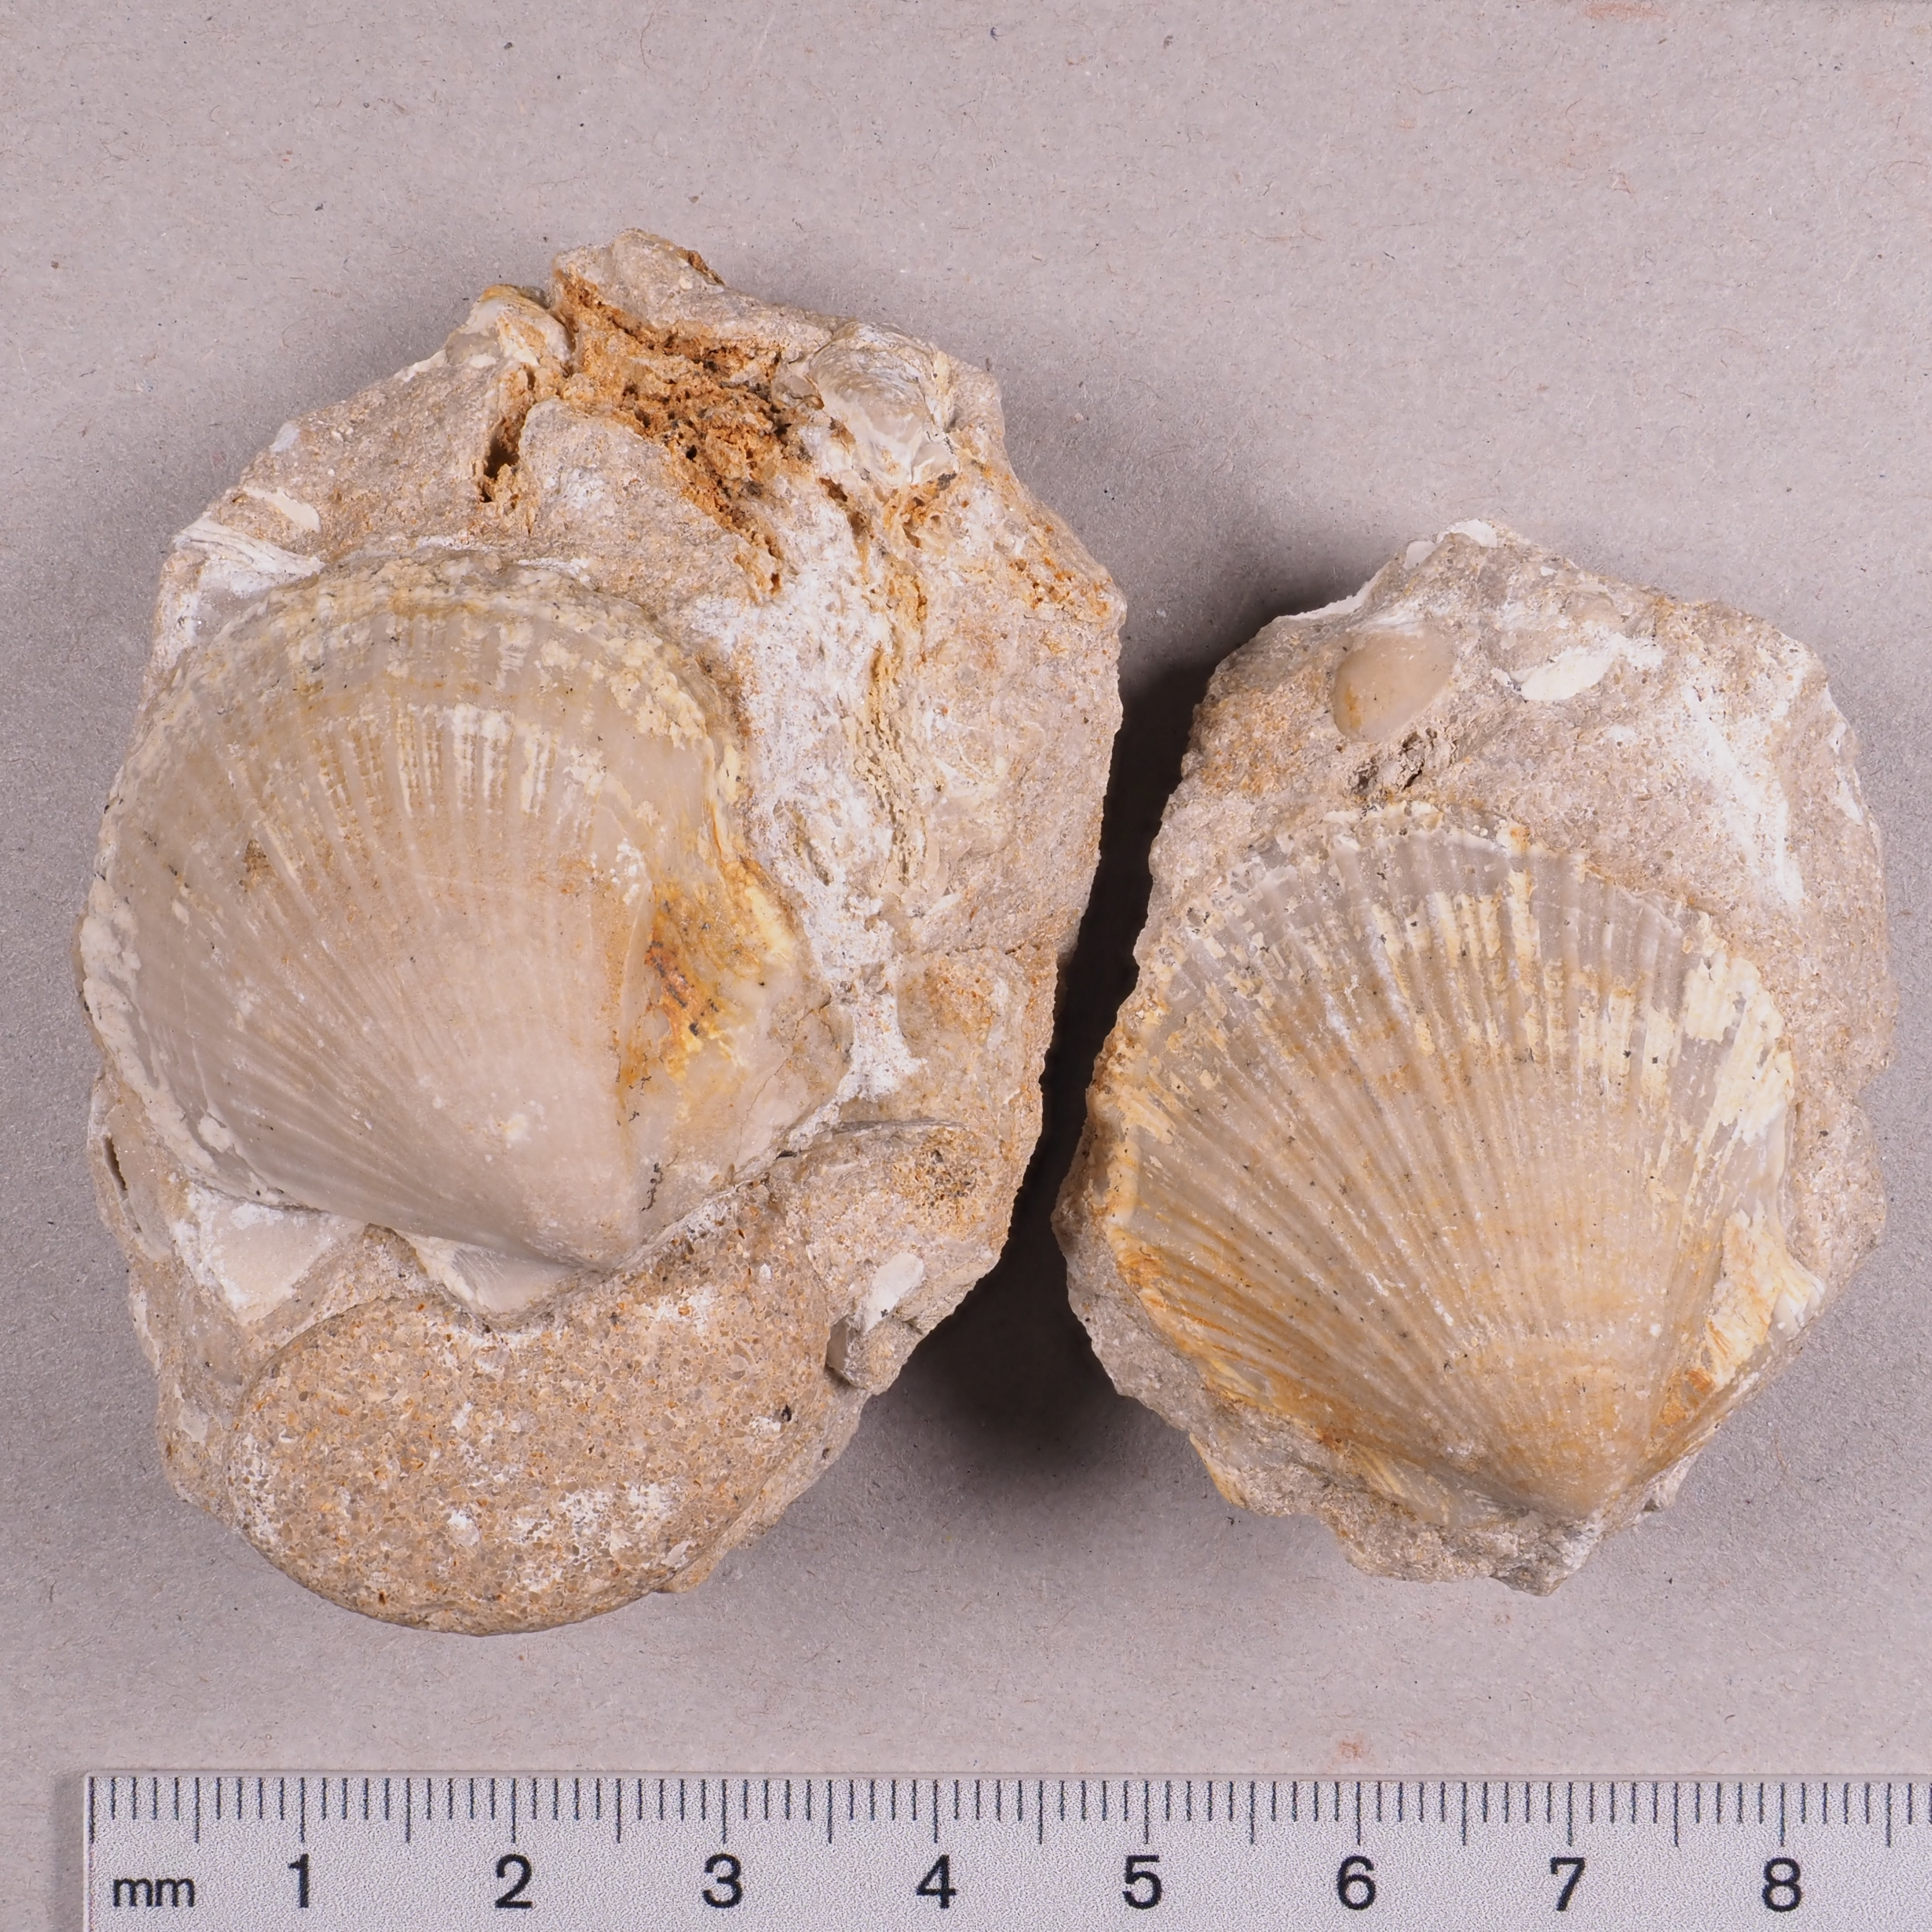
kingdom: Animalia
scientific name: Animalia
